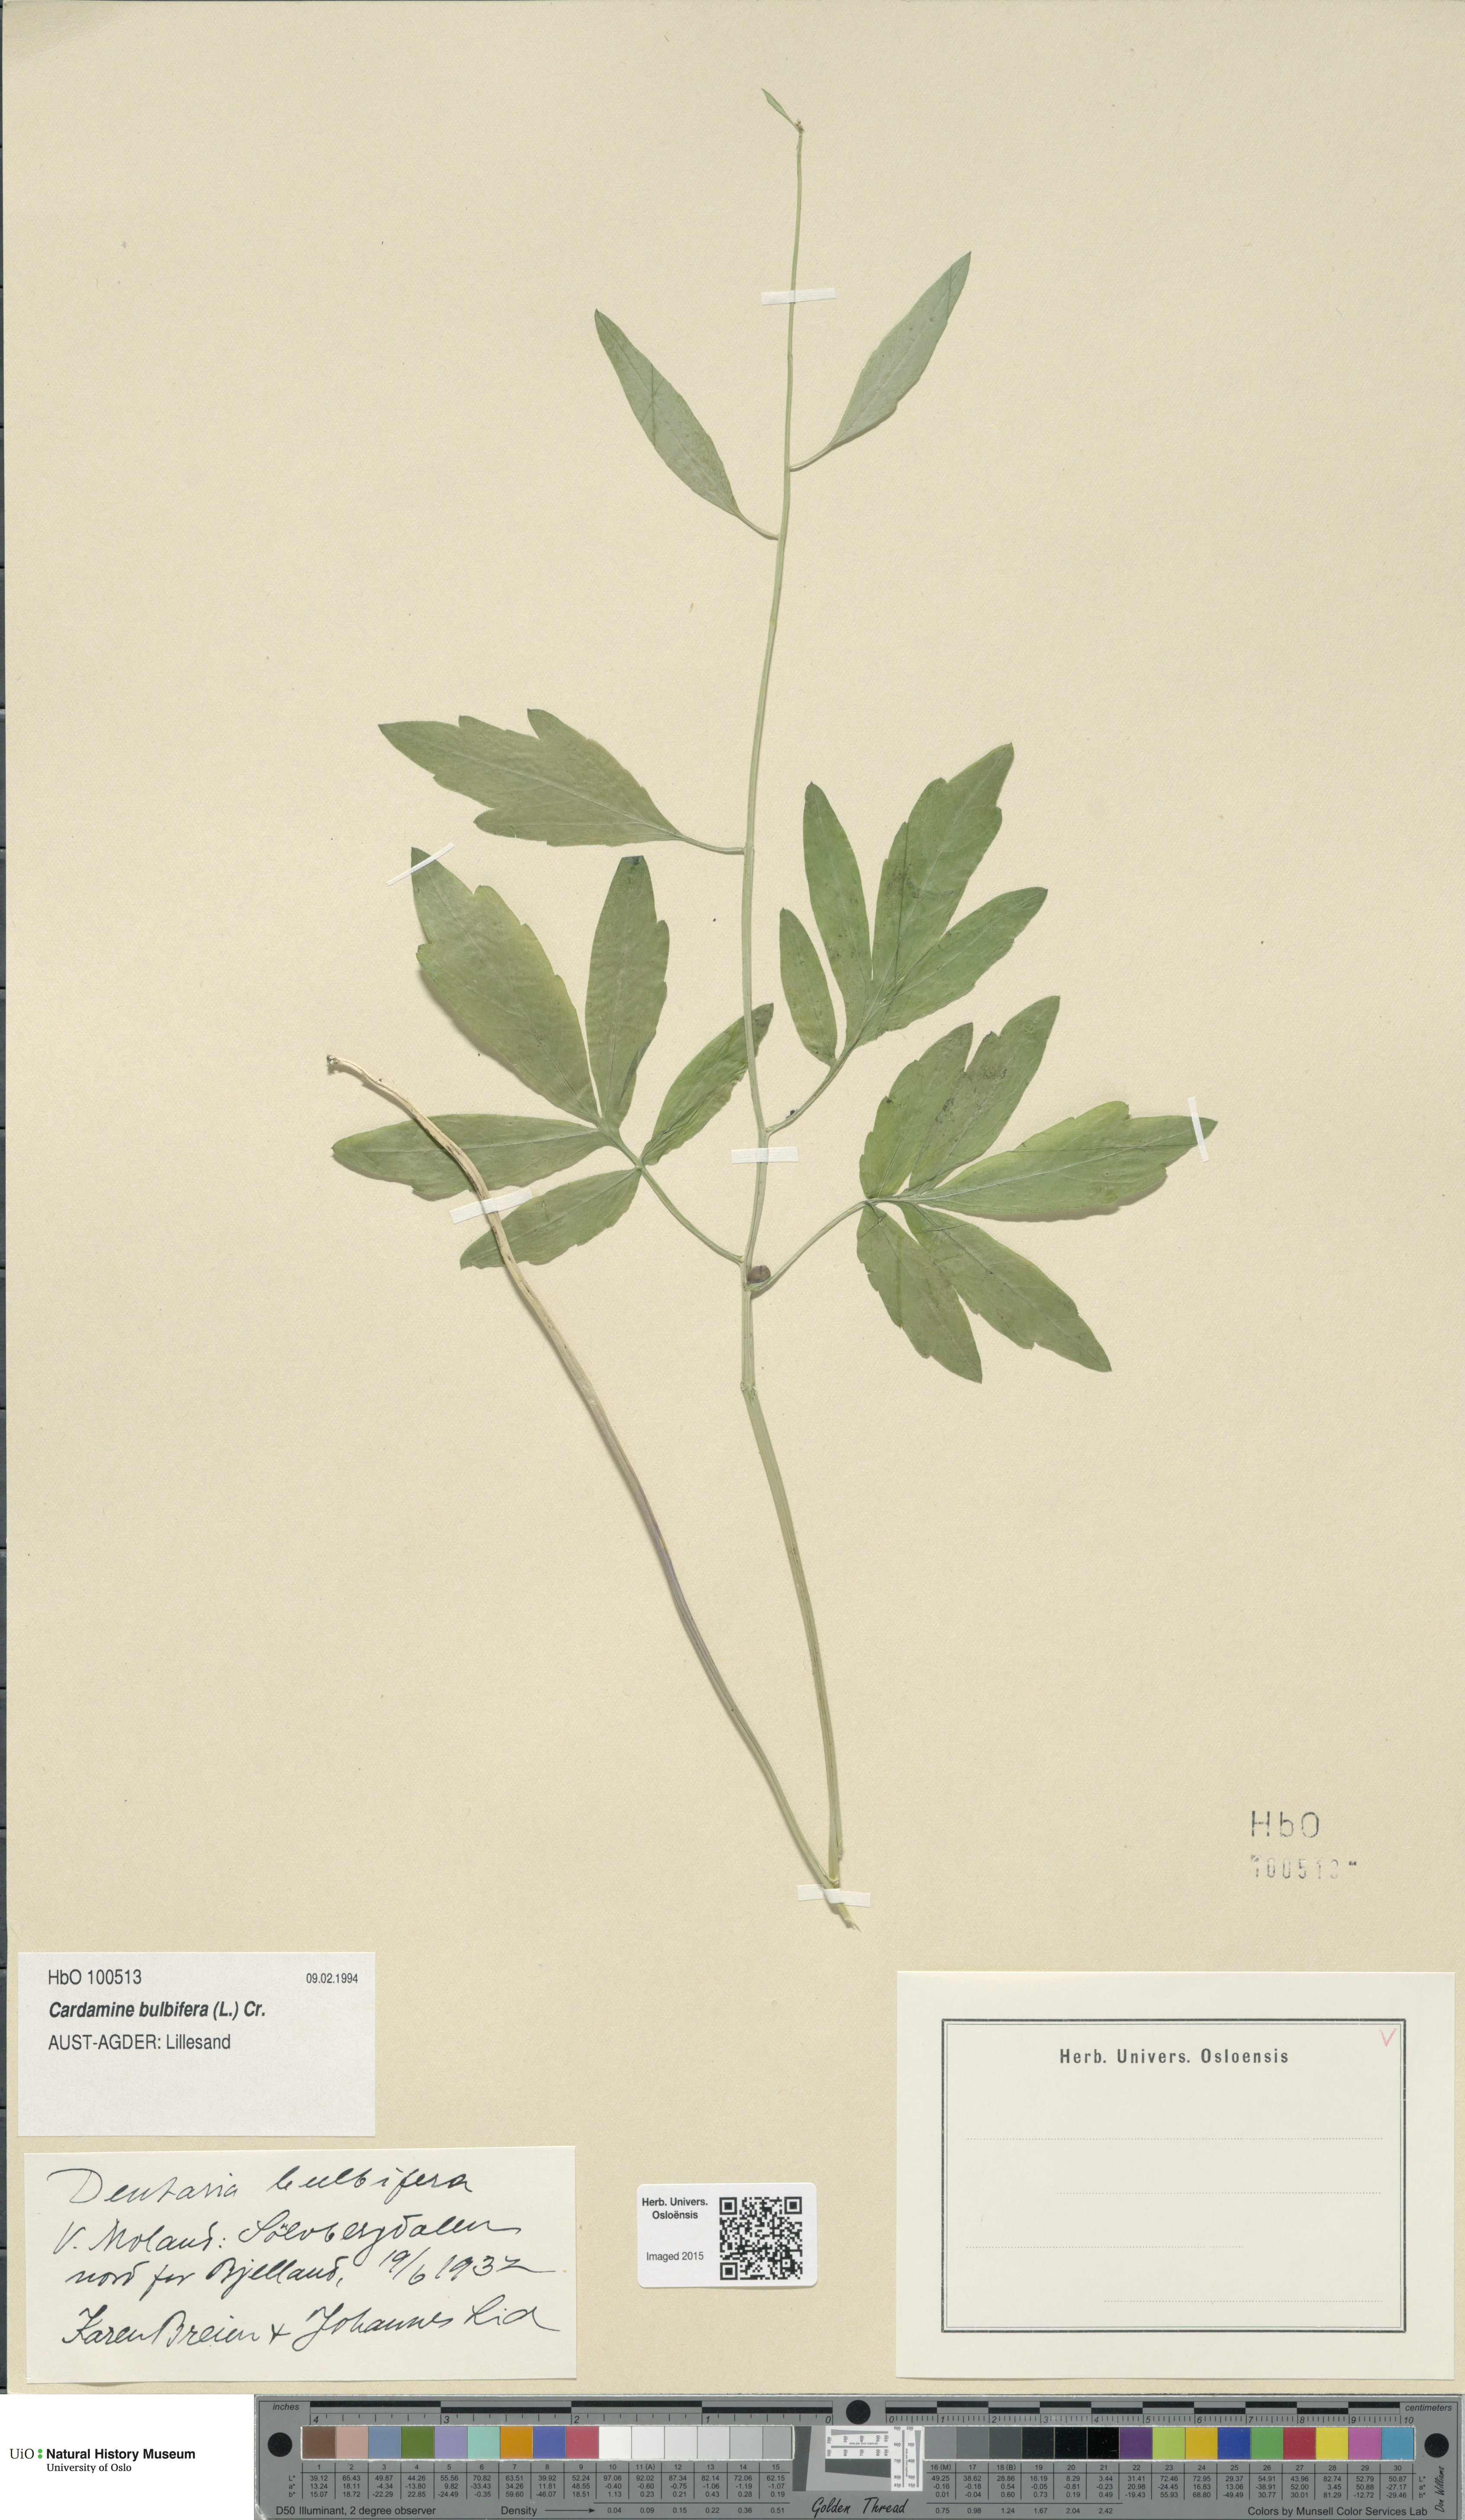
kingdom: Plantae
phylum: Tracheophyta
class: Magnoliopsida
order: Brassicales
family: Brassicaceae
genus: Cardamine
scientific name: Cardamine bulbifera
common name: Coralroot bittercress
